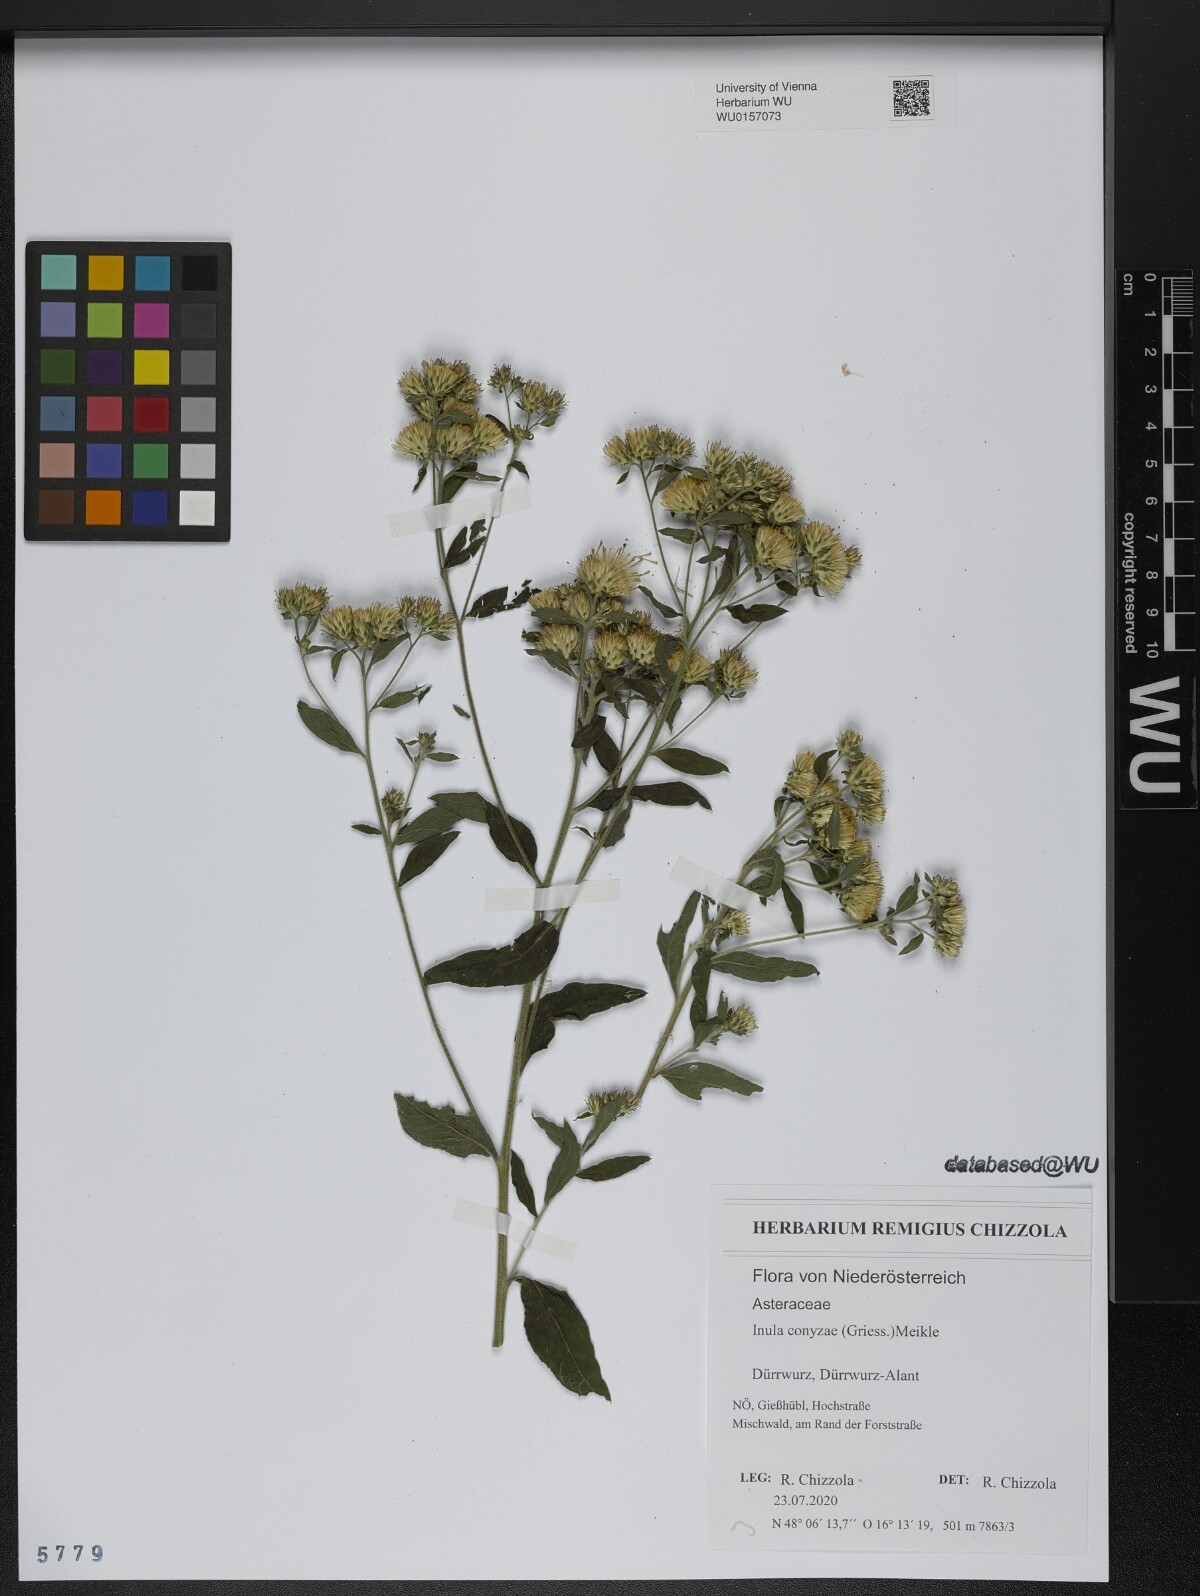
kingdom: Plantae
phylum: Tracheophyta
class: Magnoliopsida
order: Asterales
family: Asteraceae
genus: Pentanema
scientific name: Pentanema squarrosum
